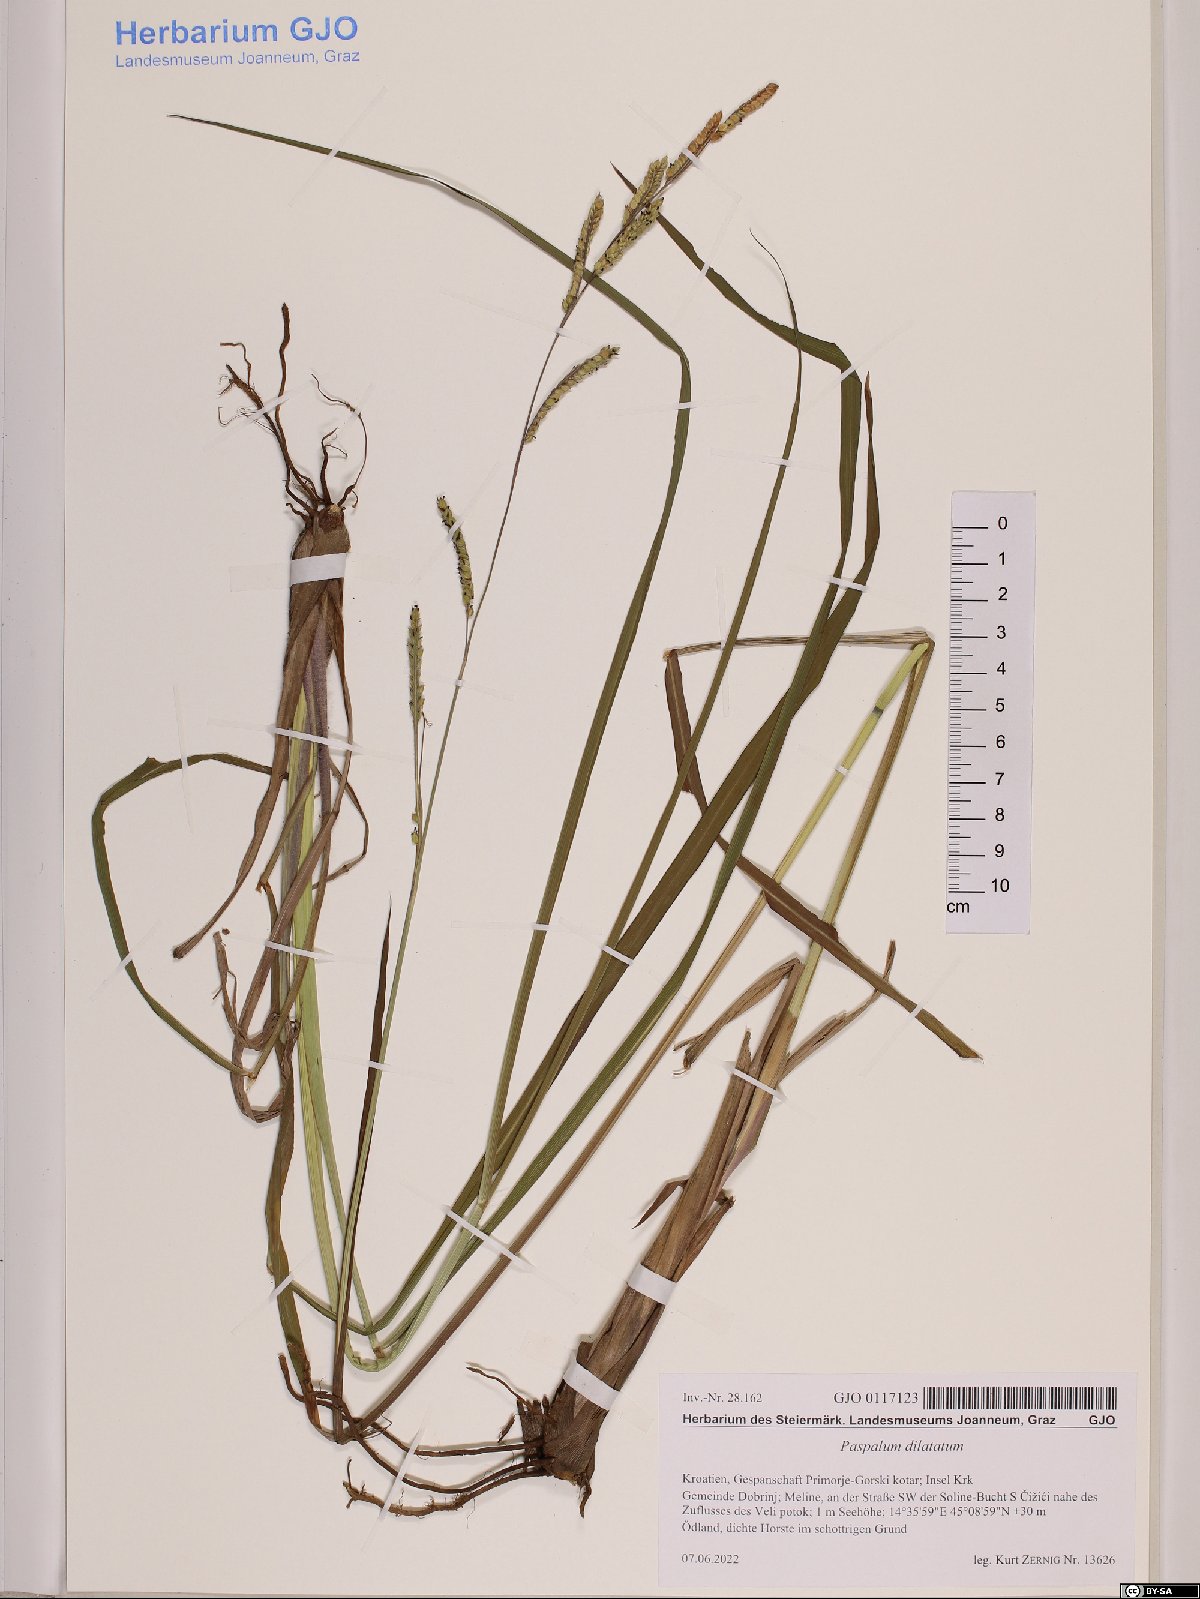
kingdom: Plantae
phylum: Tracheophyta
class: Liliopsida
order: Poales
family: Poaceae
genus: Paspalum
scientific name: Paspalum dilatatum
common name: Dallisgrass
